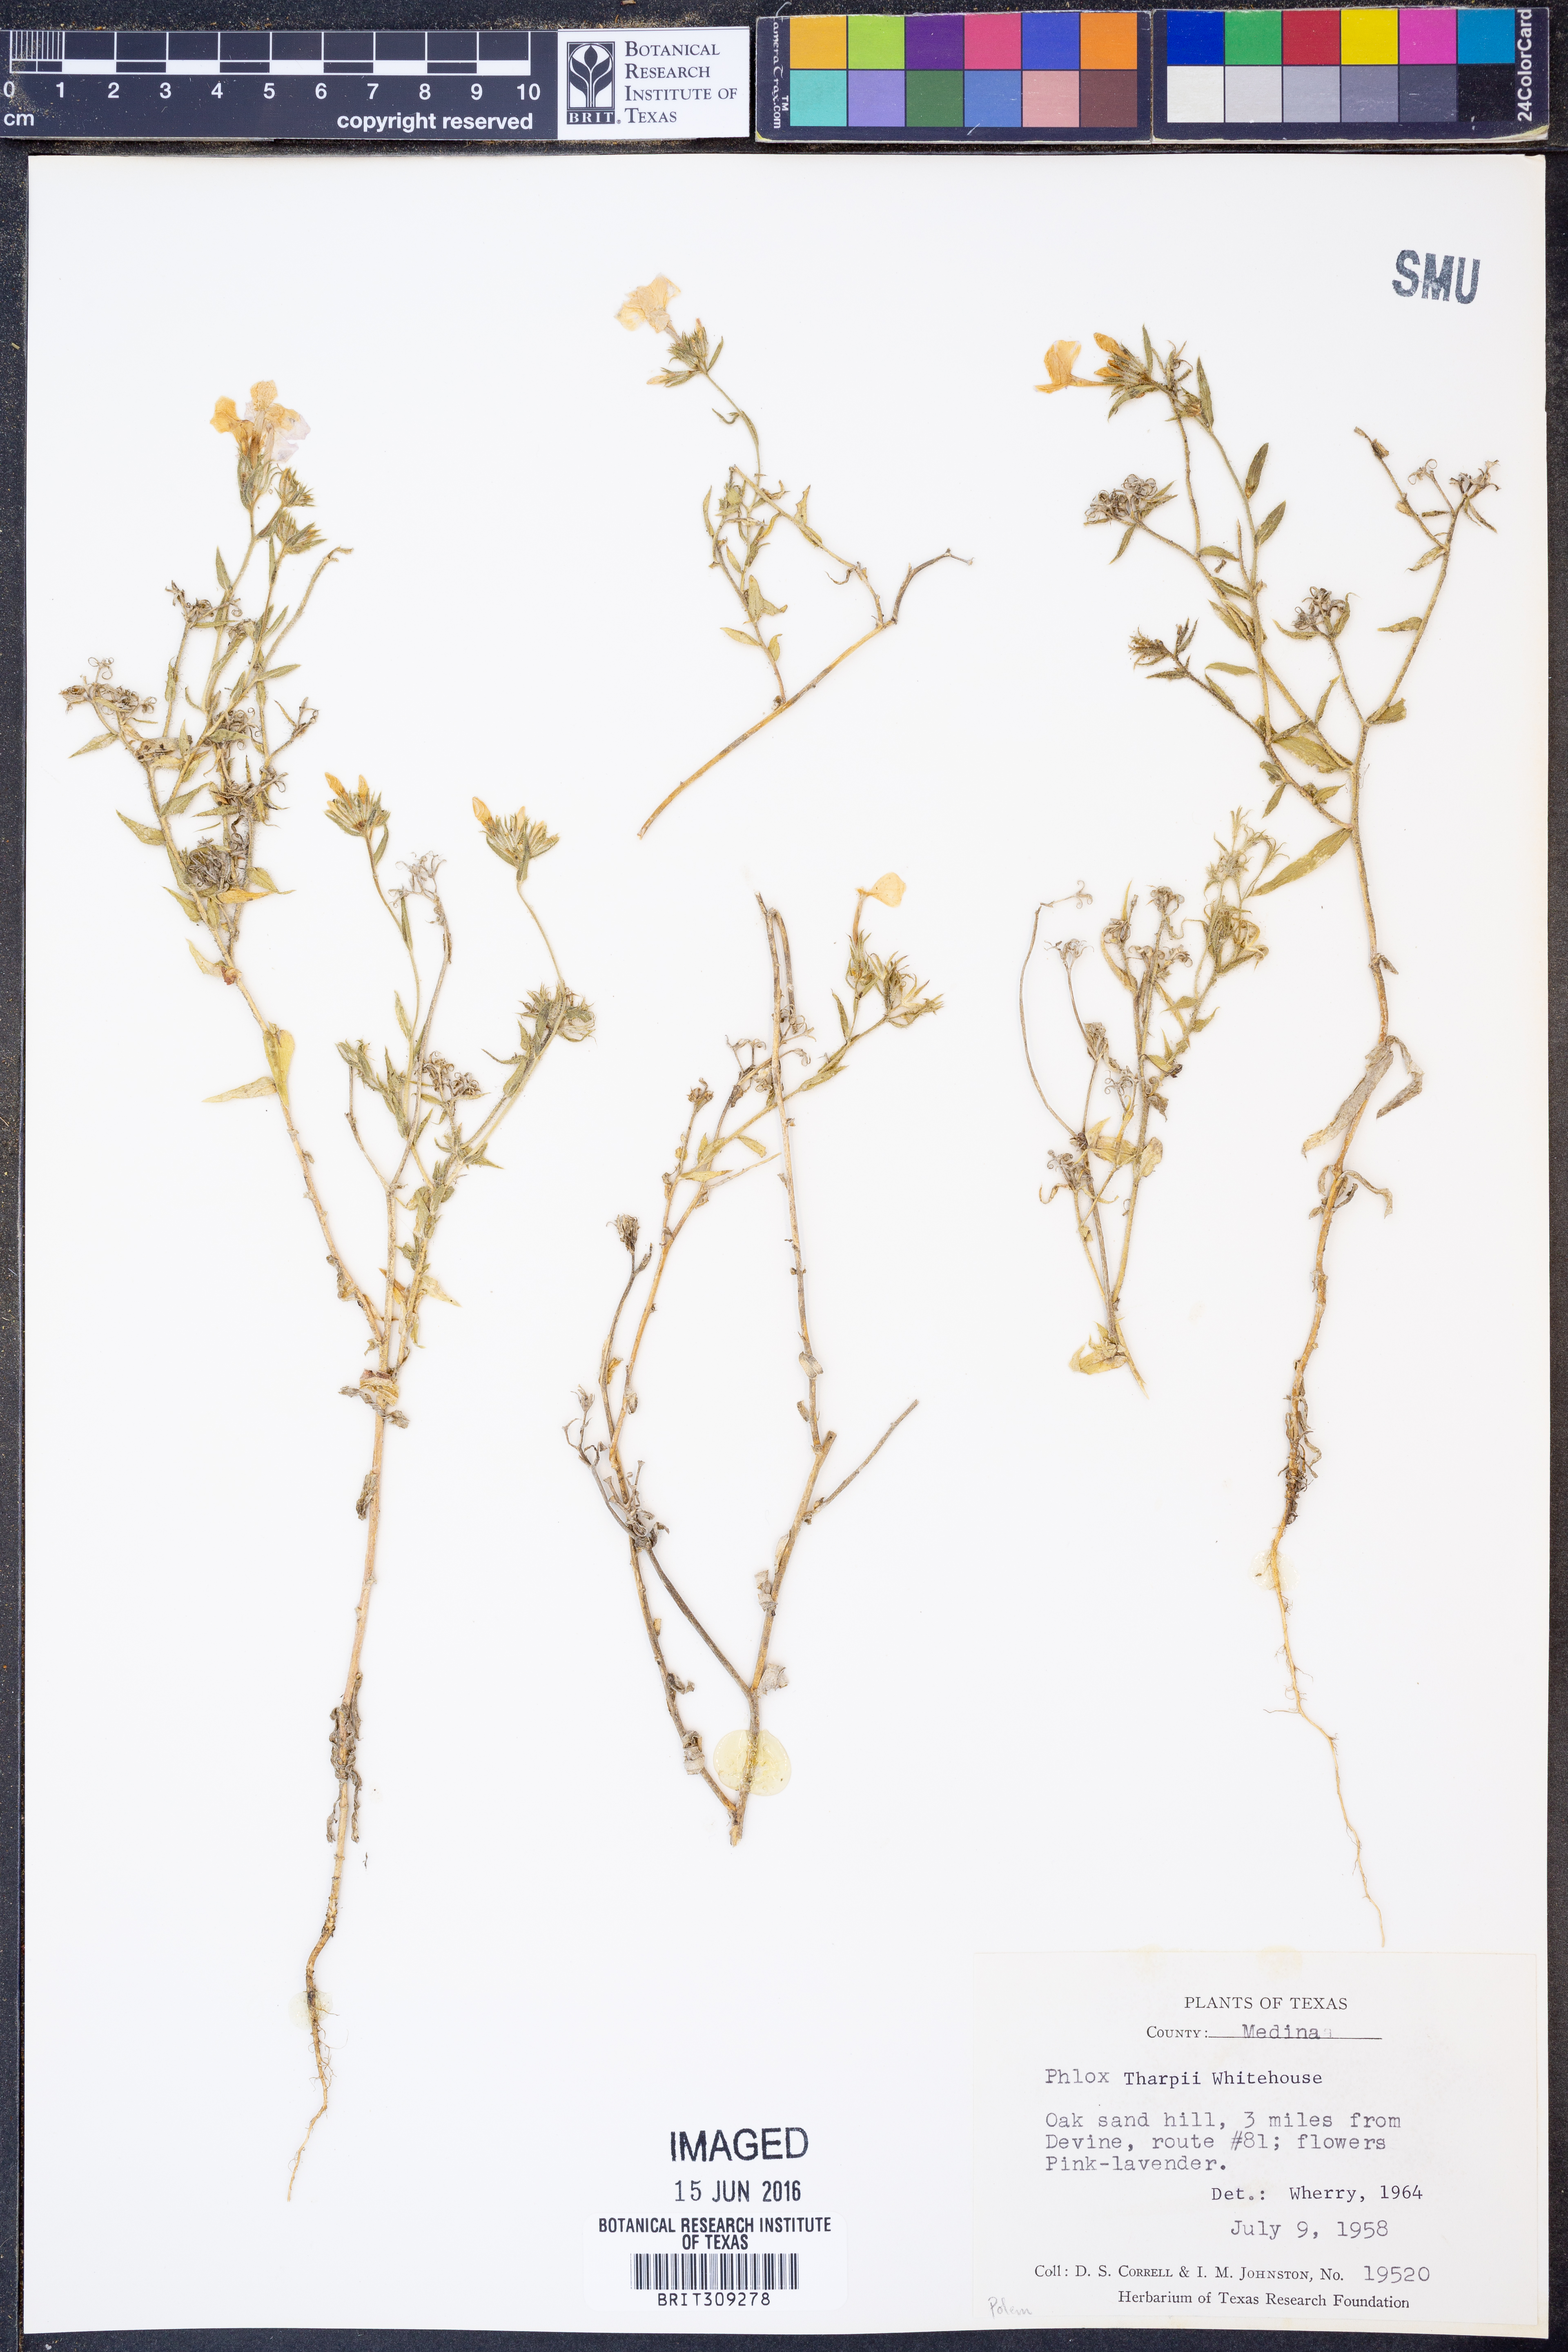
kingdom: Plantae
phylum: Tracheophyta
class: Magnoliopsida
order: Ericales
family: Polemoniaceae
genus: Phlox
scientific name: Phlox drummondii
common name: Drummond's phlox
